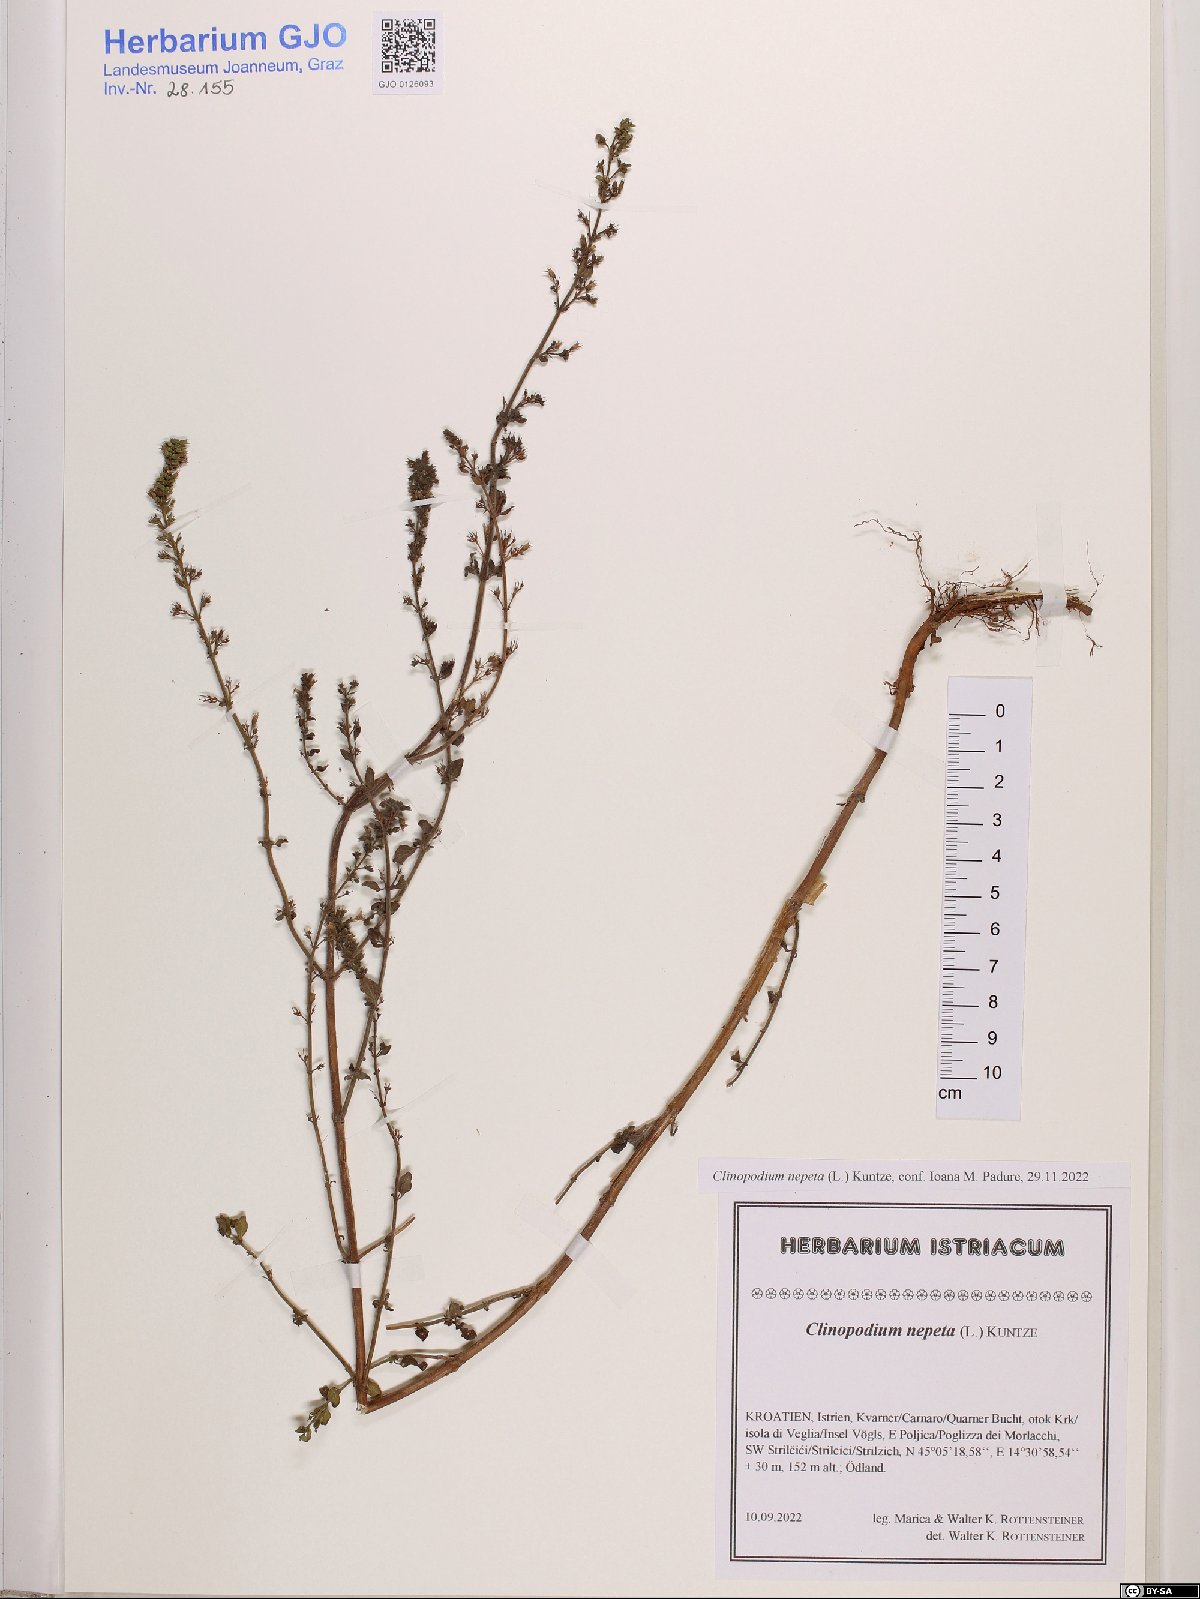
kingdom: Plantae
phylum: Tracheophyta
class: Magnoliopsida
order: Lamiales
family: Lamiaceae
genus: Clinopodium
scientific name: Clinopodium nepeta
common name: Lesser calamint
